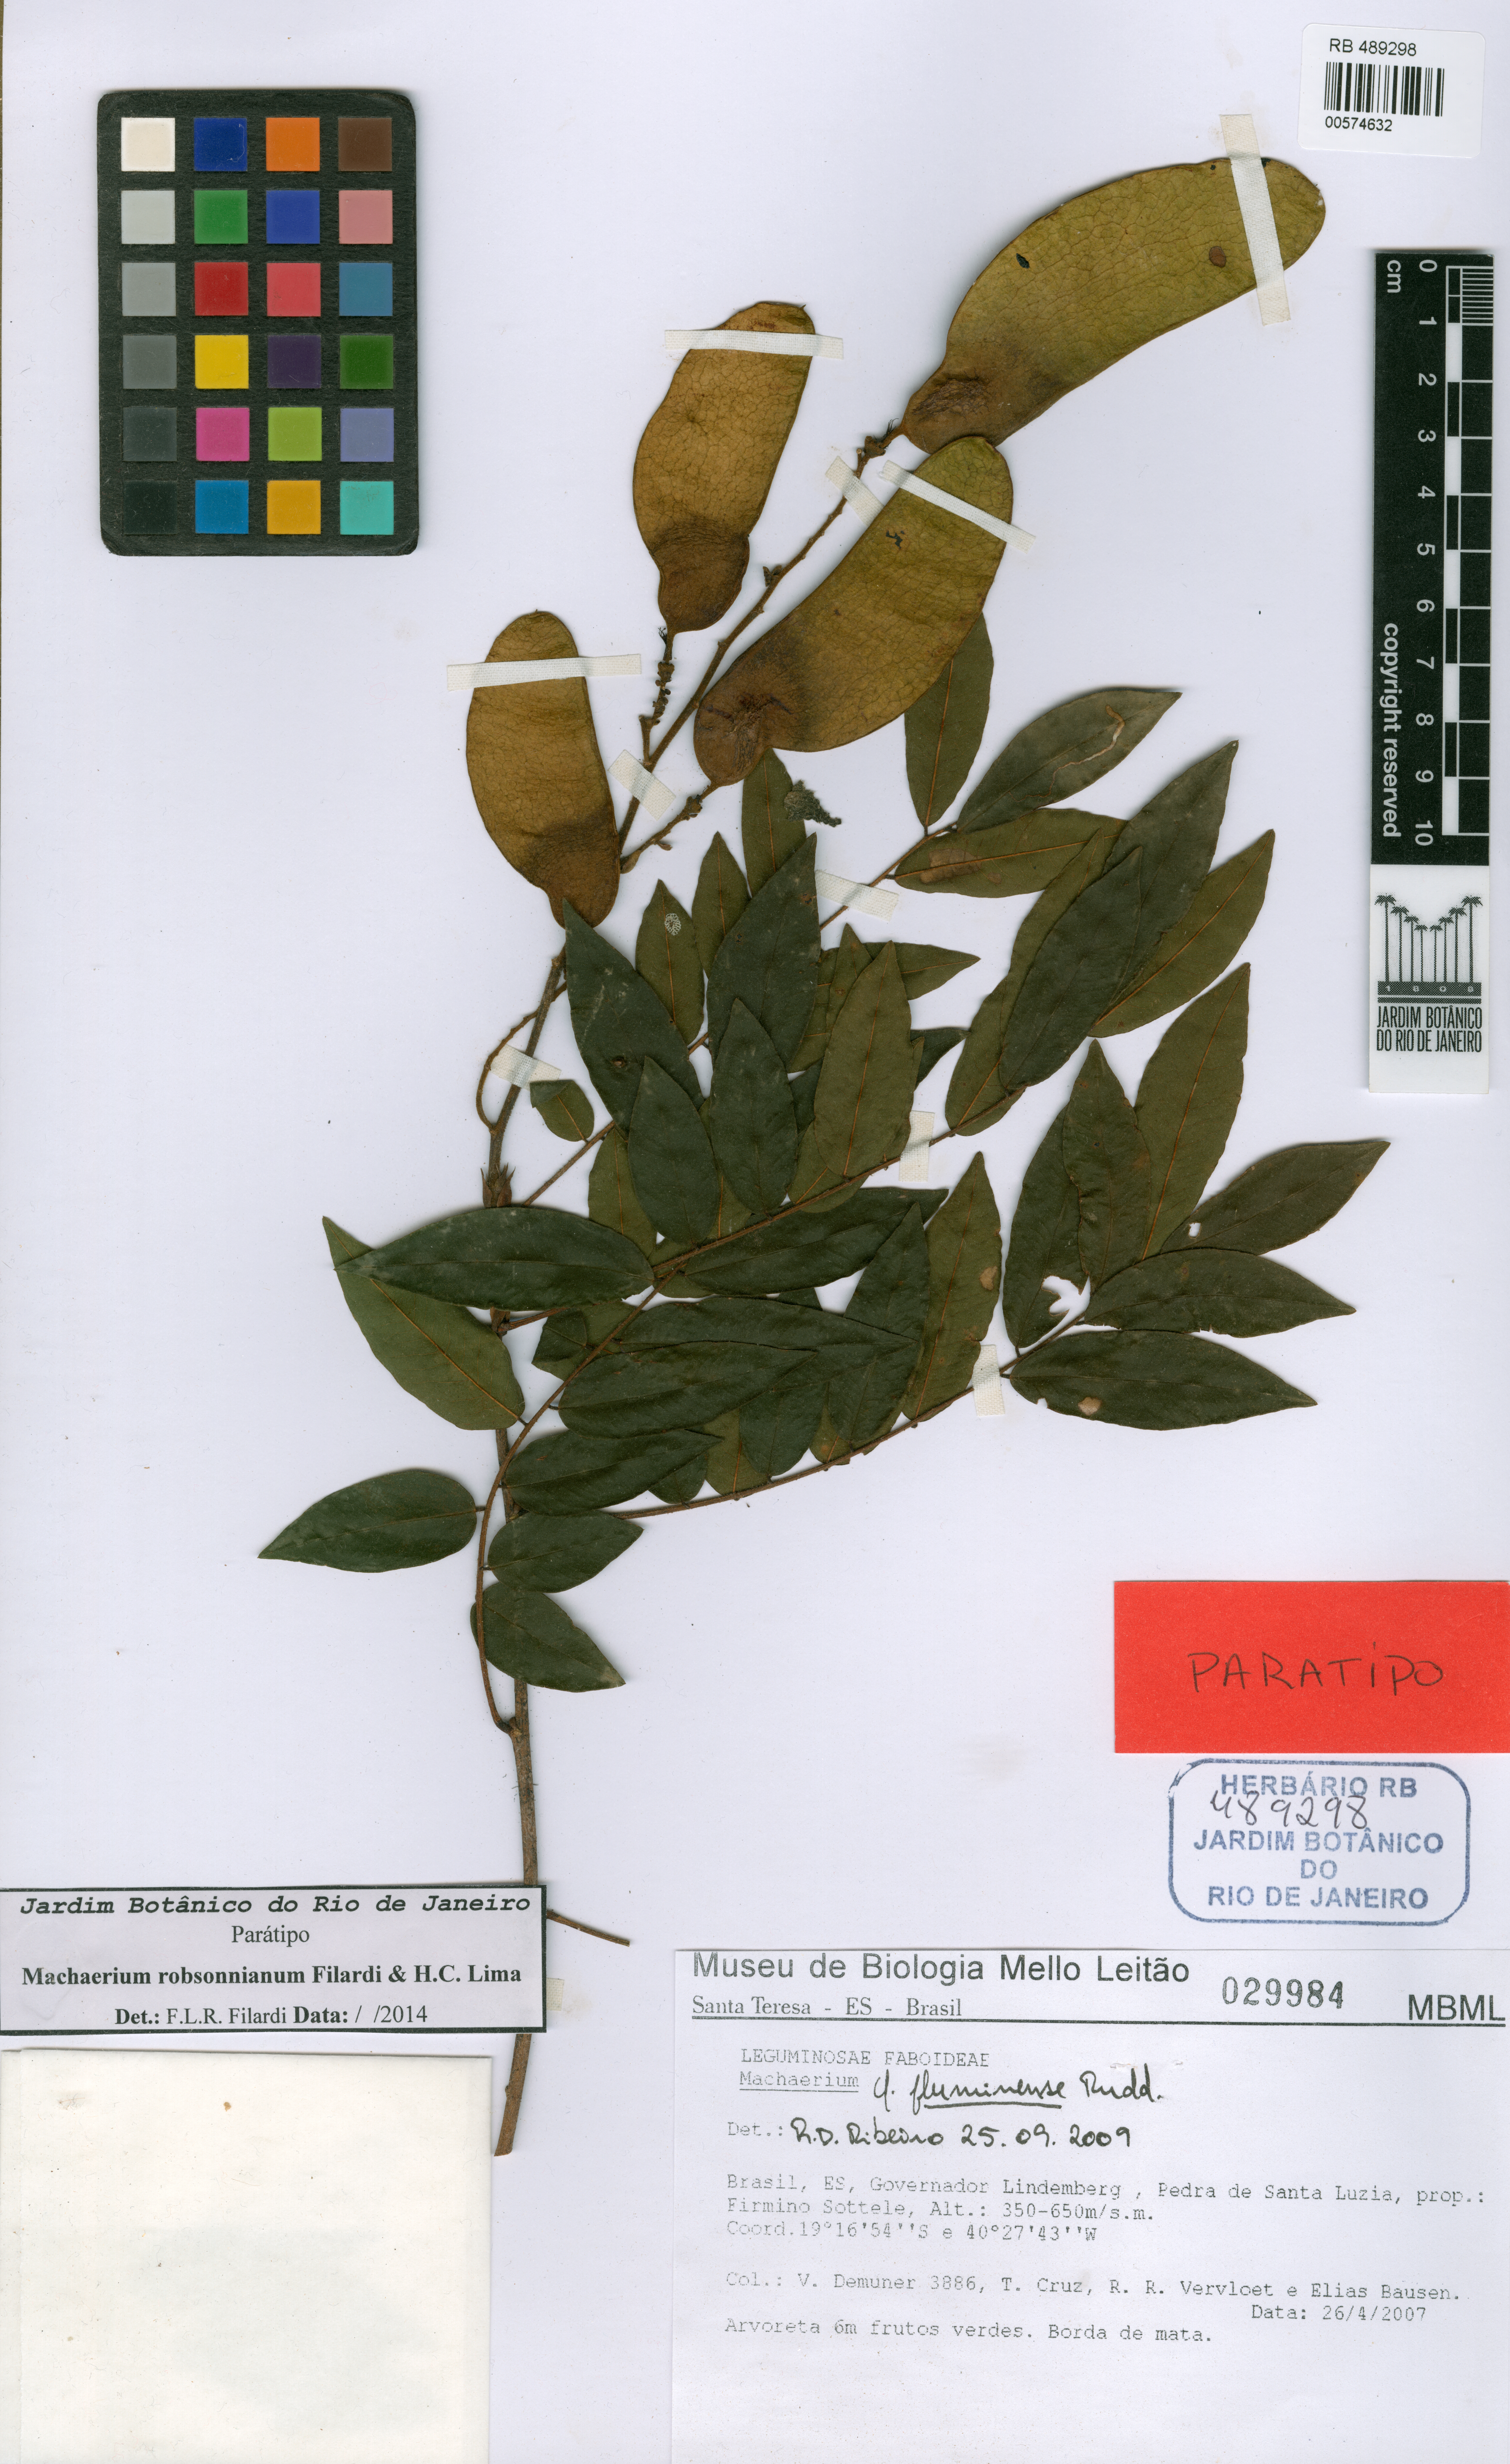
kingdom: Plantae
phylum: Tracheophyta
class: Magnoliopsida
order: Fabales
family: Fabaceae
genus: Machaerium
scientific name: Machaerium robsonianum
